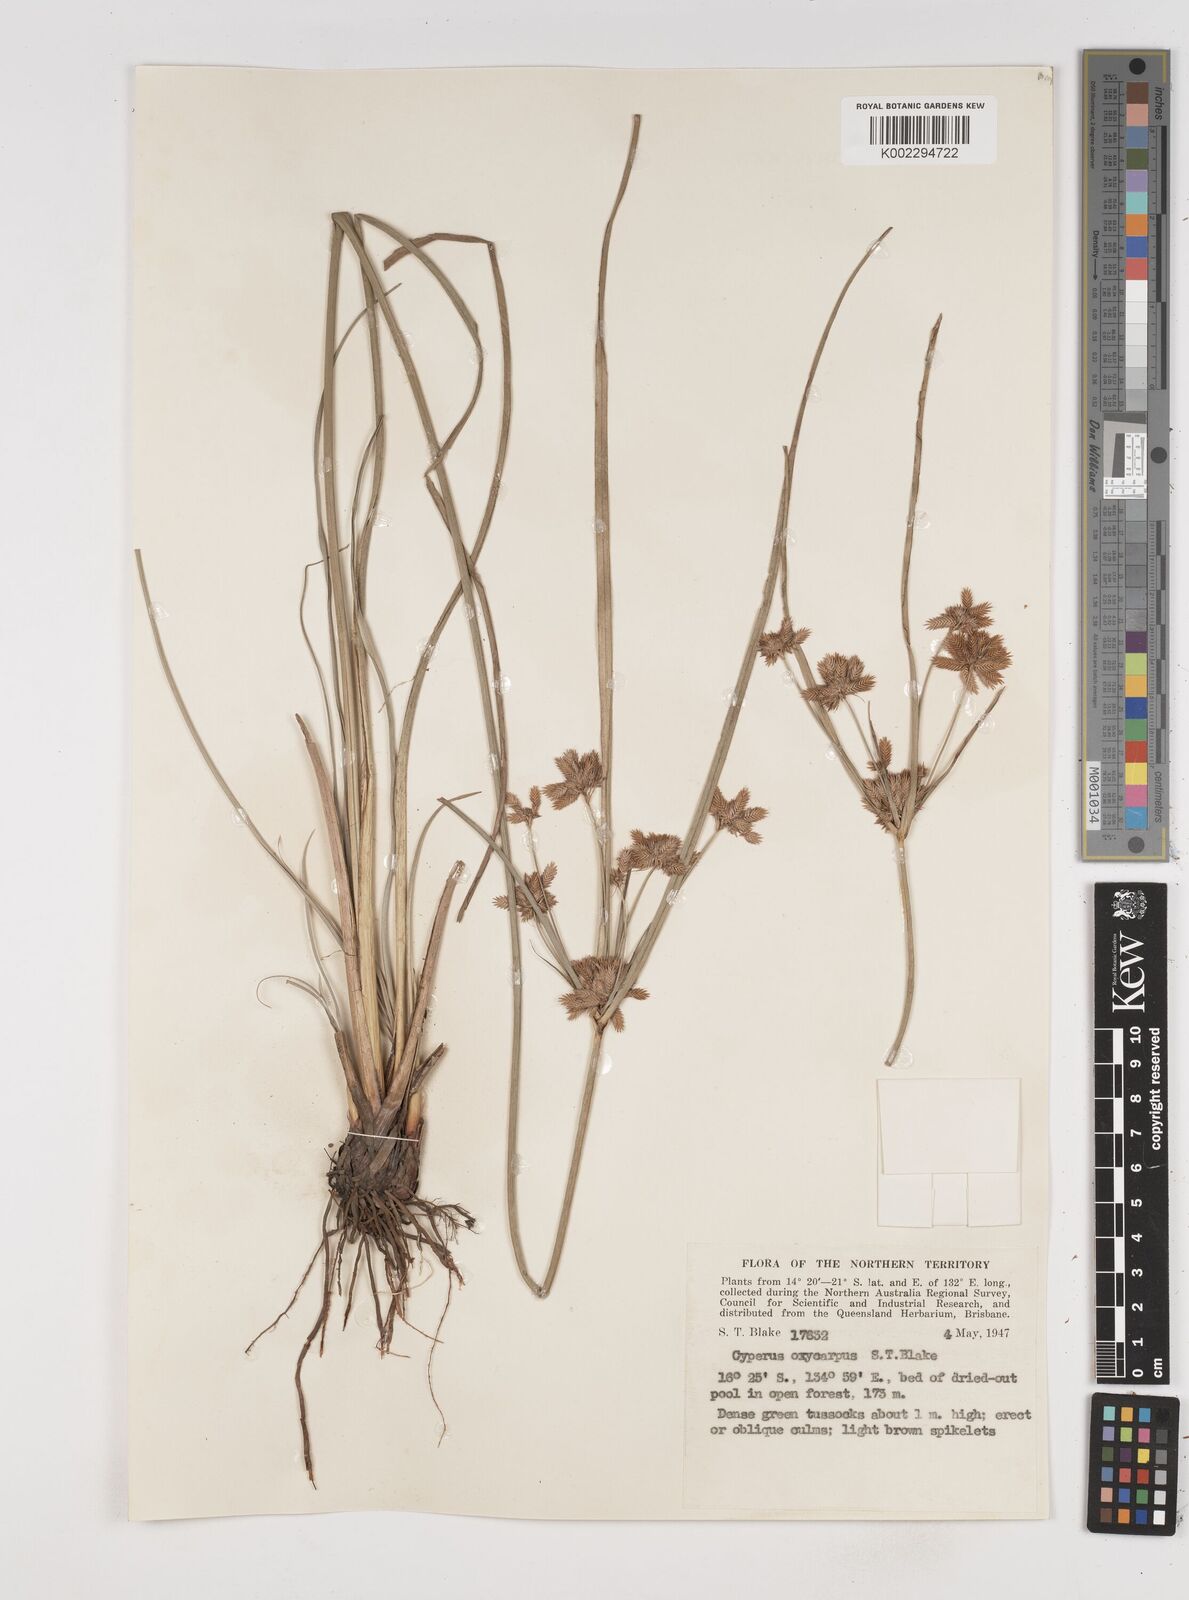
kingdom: Plantae
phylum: Tracheophyta
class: Liliopsida
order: Poales
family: Cyperaceae
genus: Cyperus
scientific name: Cyperus oxycarpus
